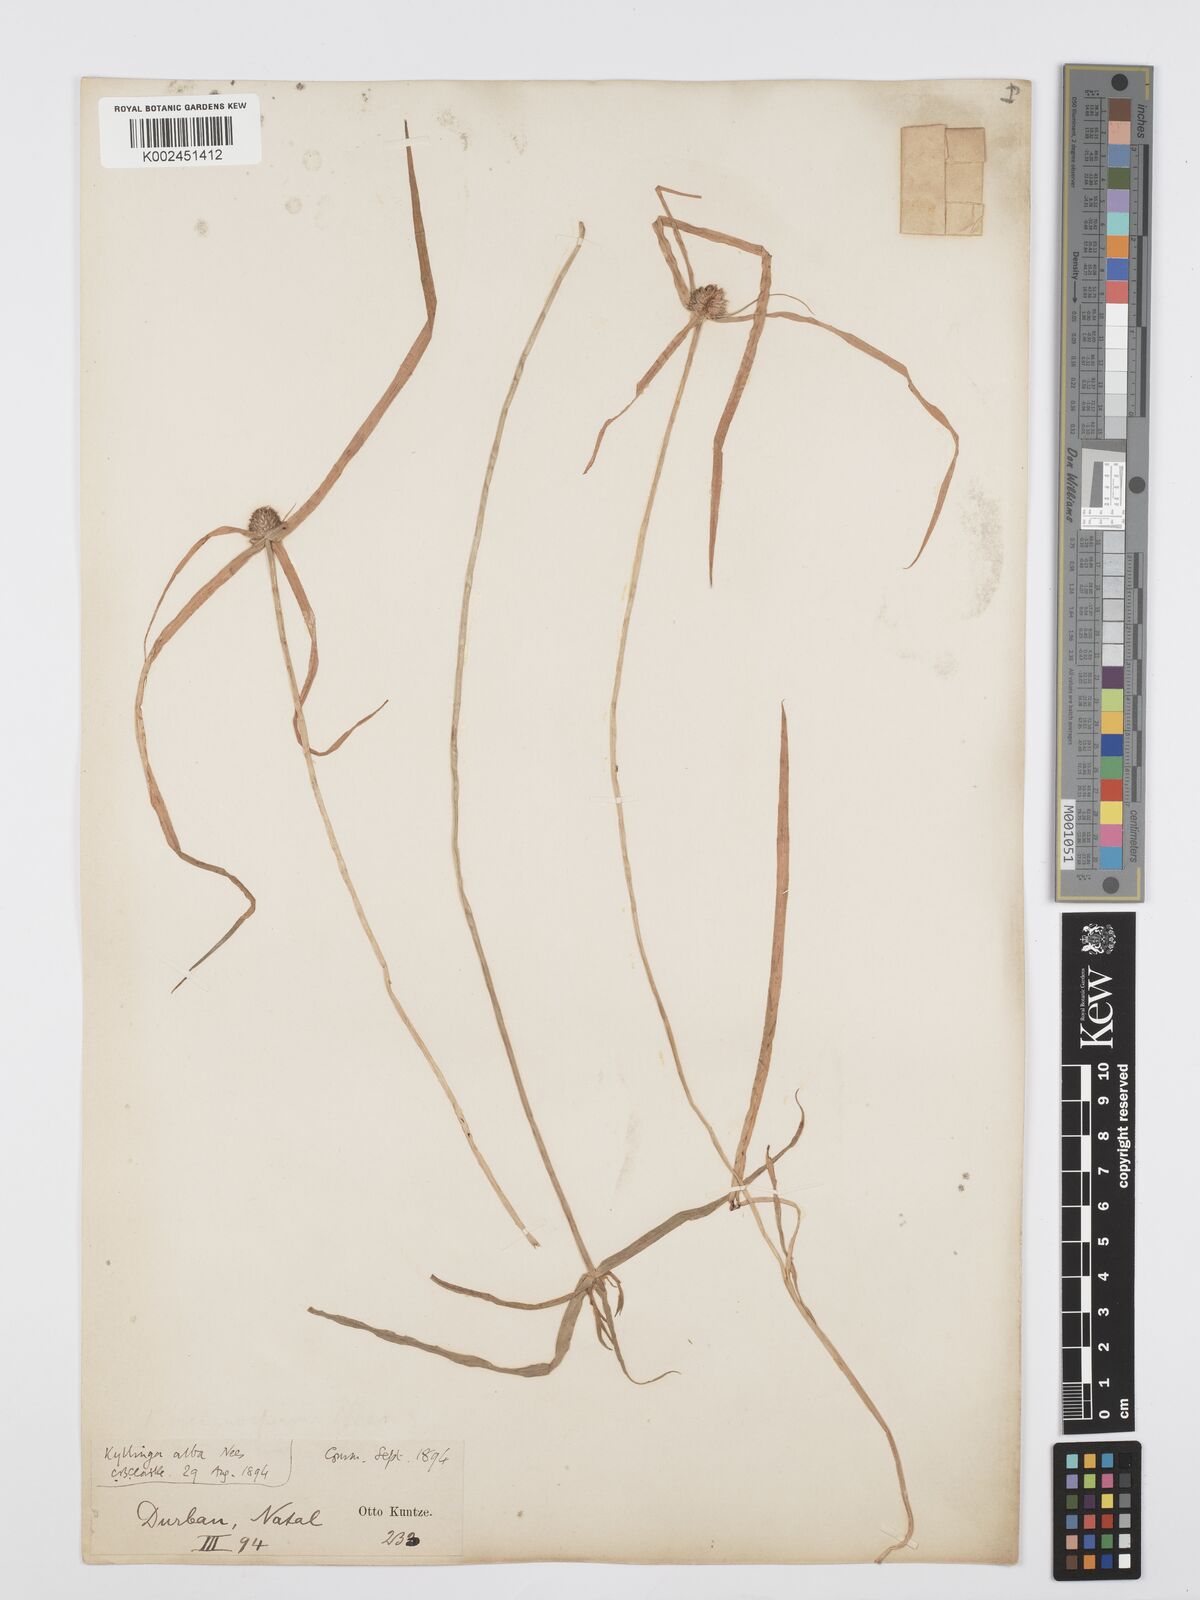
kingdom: Plantae
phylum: Tracheophyta
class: Liliopsida
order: Poales
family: Cyperaceae
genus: Cyperus
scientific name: Cyperus
